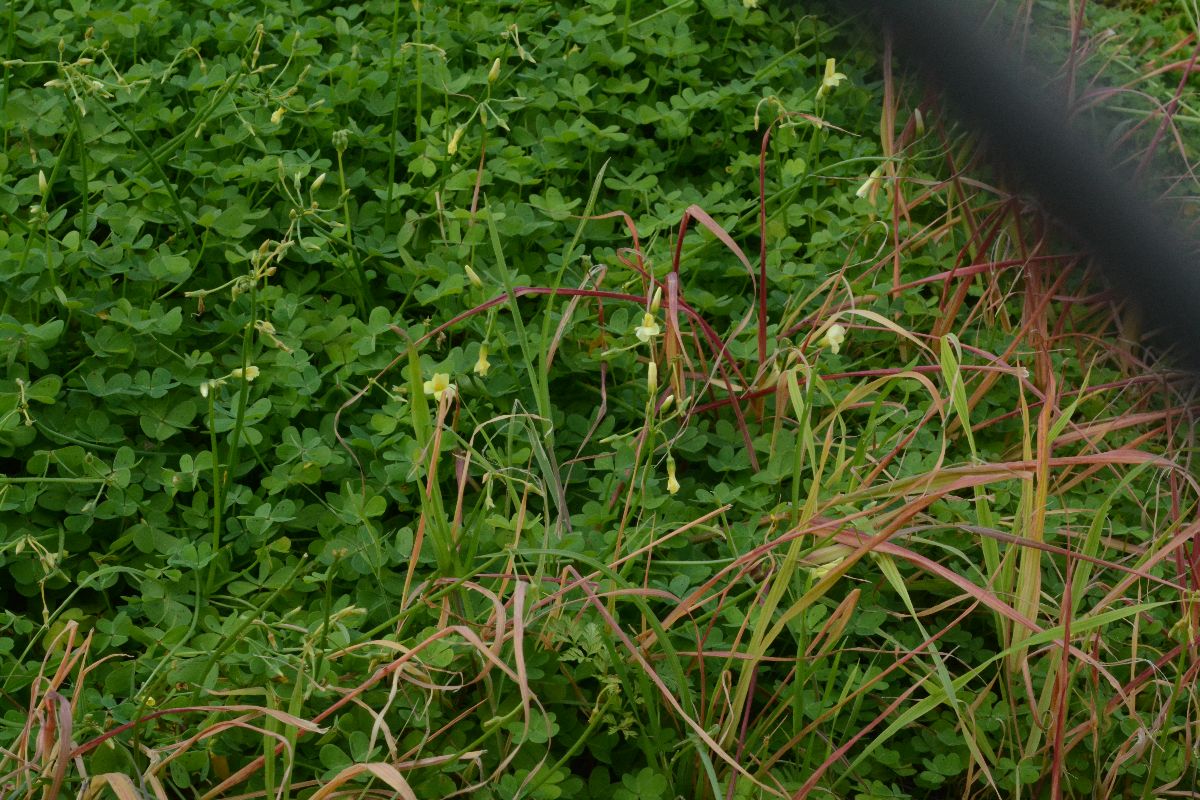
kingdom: Plantae
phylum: Tracheophyta
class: Magnoliopsida
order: Oxalidales
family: Oxalidaceae
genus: Oxalis
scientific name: Oxalis pes-caprae
